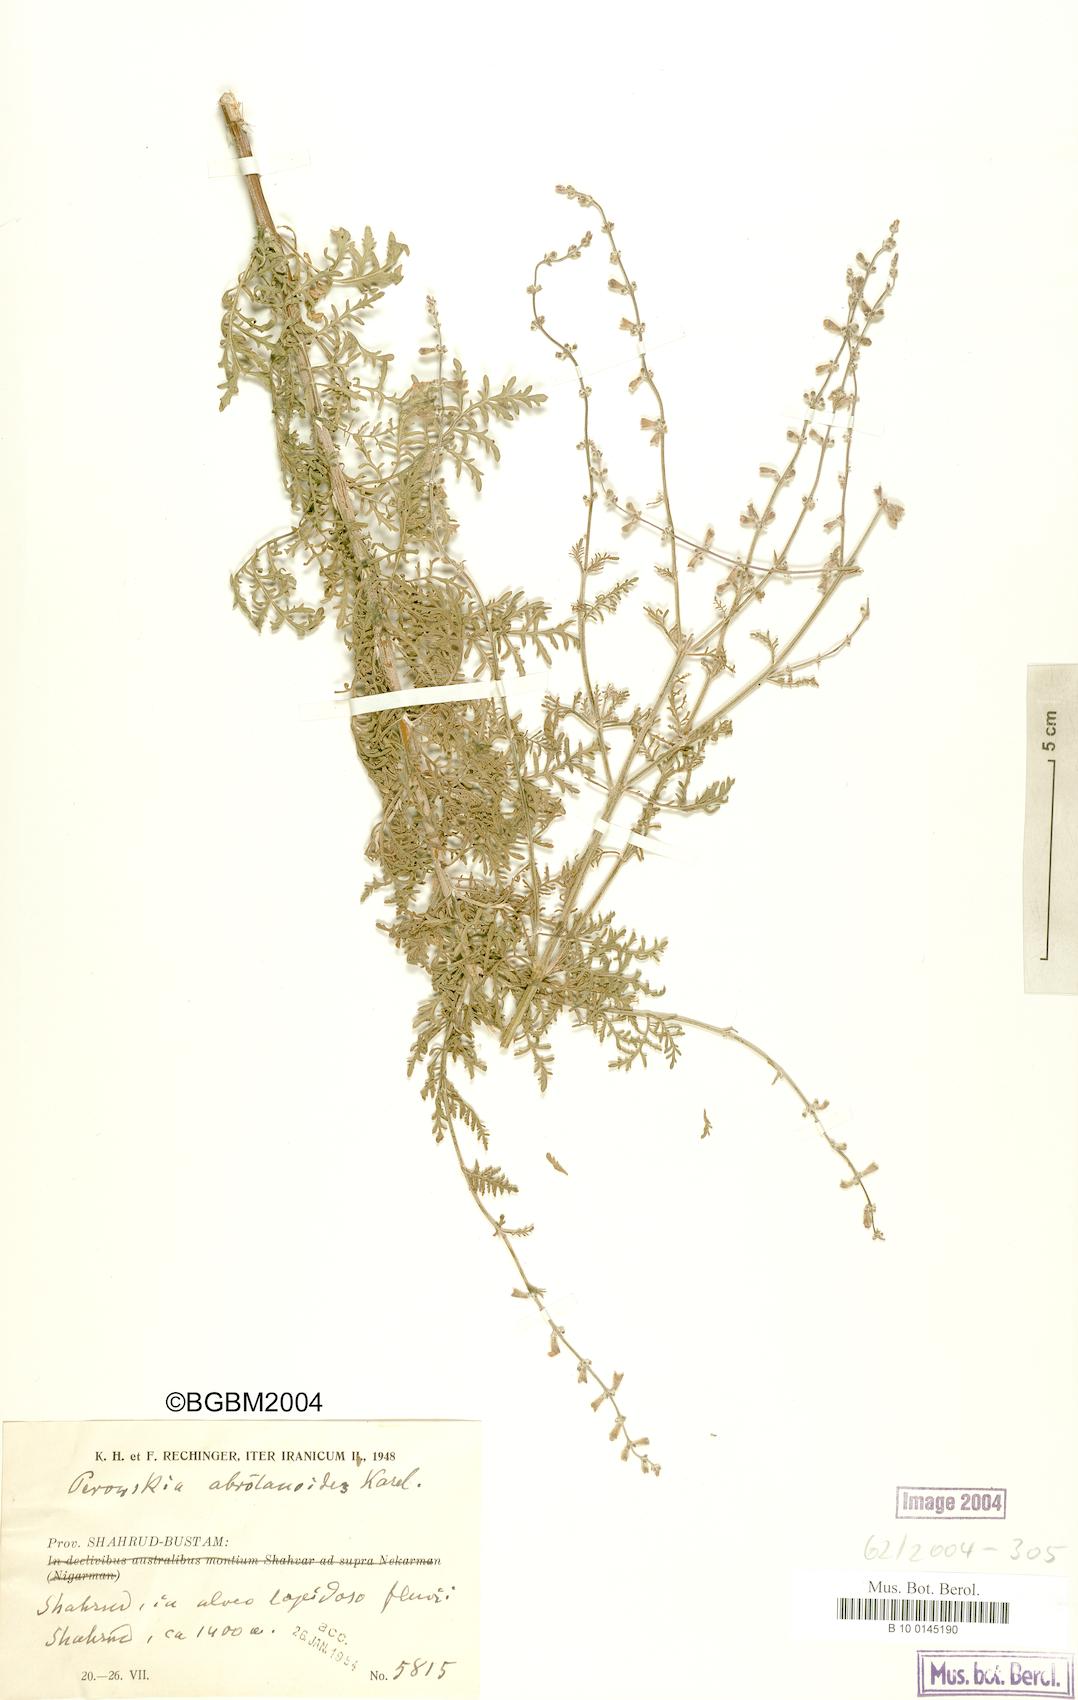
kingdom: Plantae
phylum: Tracheophyta
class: Magnoliopsida
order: Lamiales
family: Lamiaceae
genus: Salvia
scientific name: Salvia abrotanoides
